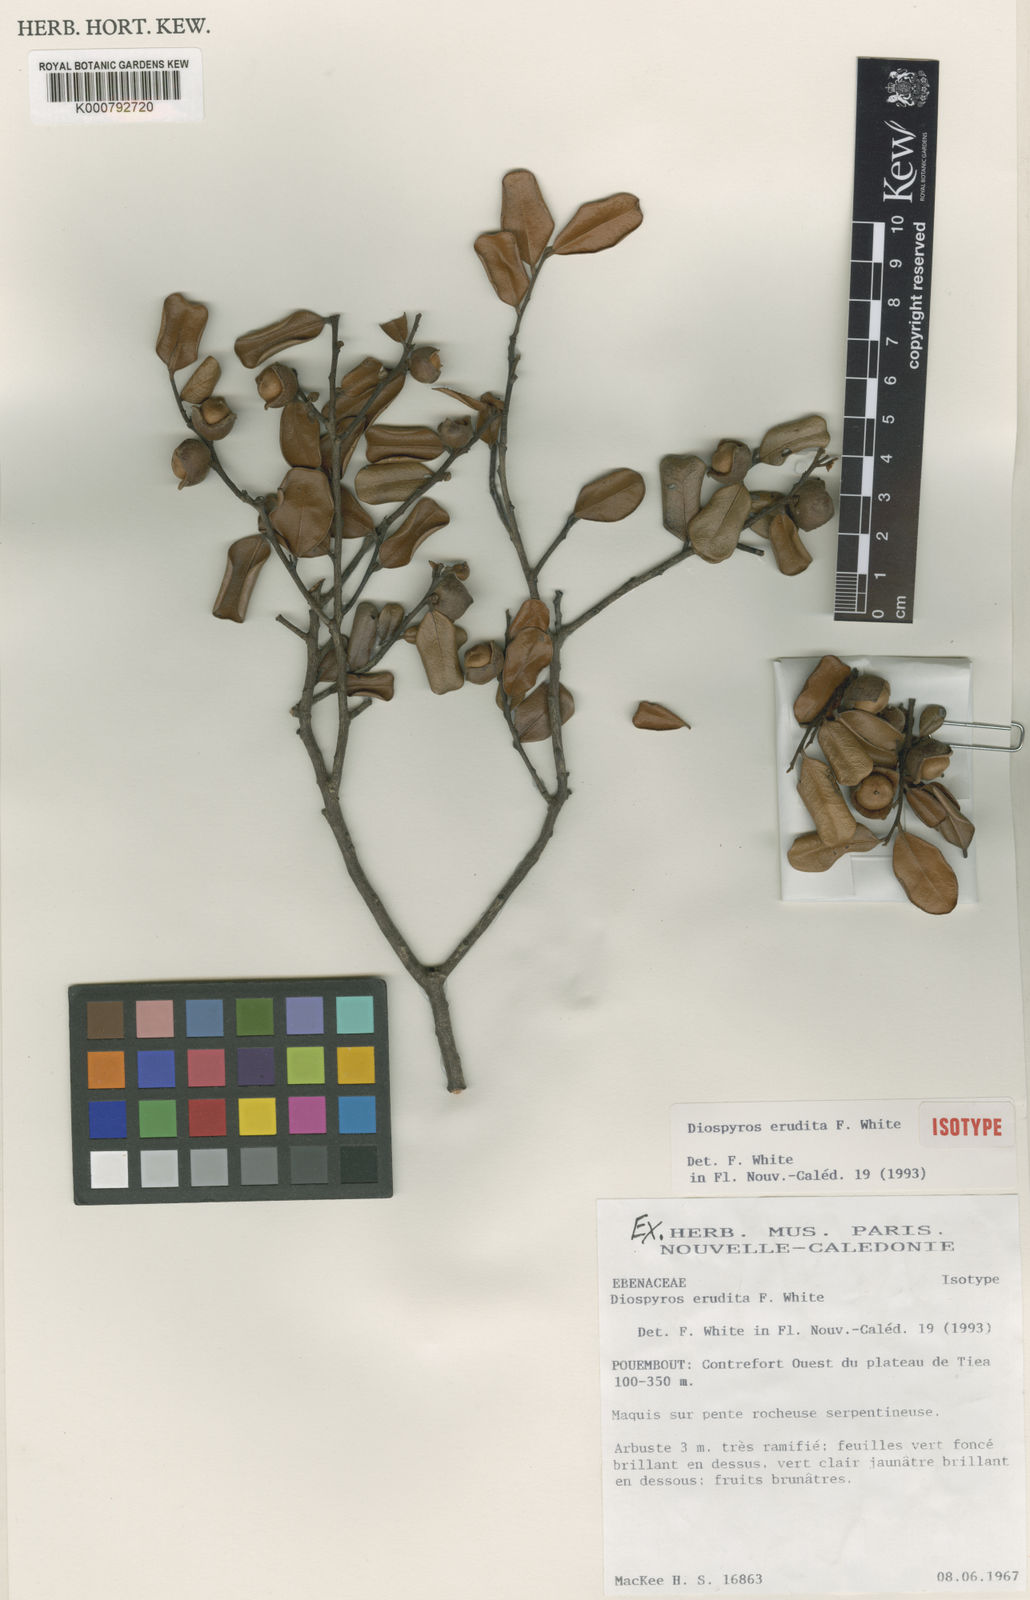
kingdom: Plantae
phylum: Tracheophyta
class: Magnoliopsida
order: Ericales
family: Ebenaceae
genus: Diospyros
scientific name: Diospyros revolutissima
